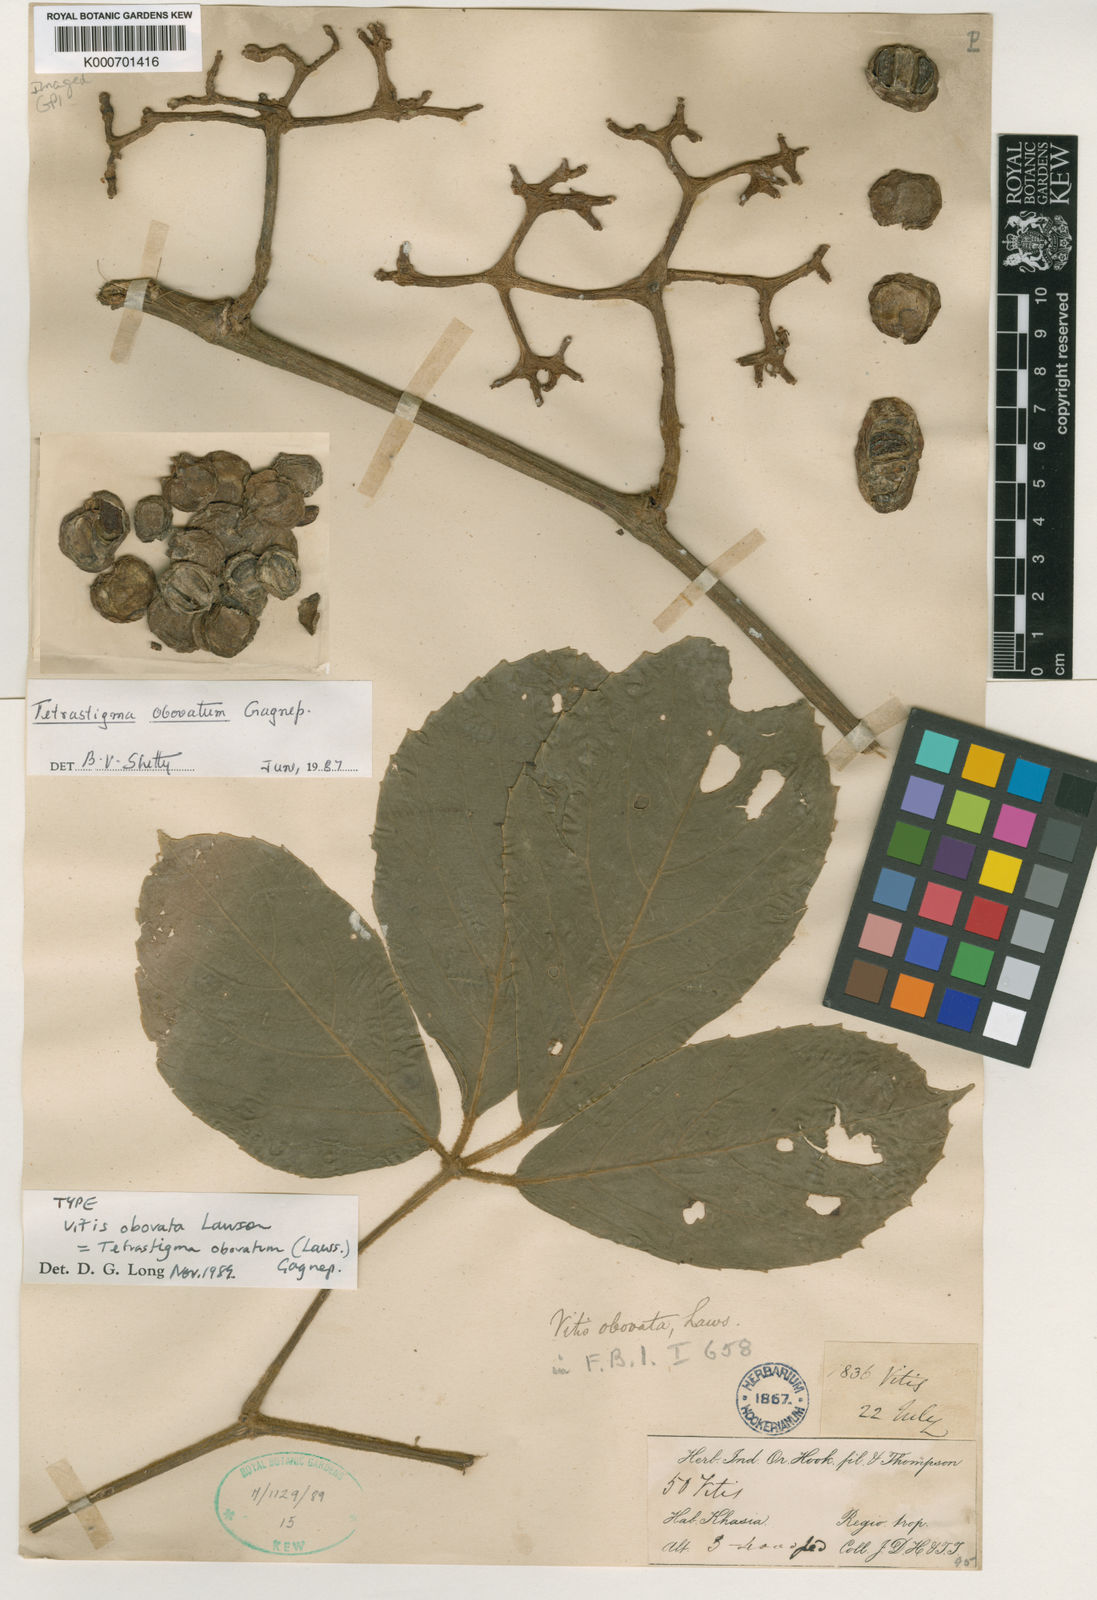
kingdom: Plantae
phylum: Tracheophyta
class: Magnoliopsida
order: Vitales
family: Vitaceae
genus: Tetrastigma
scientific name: Tetrastigma obovatum
